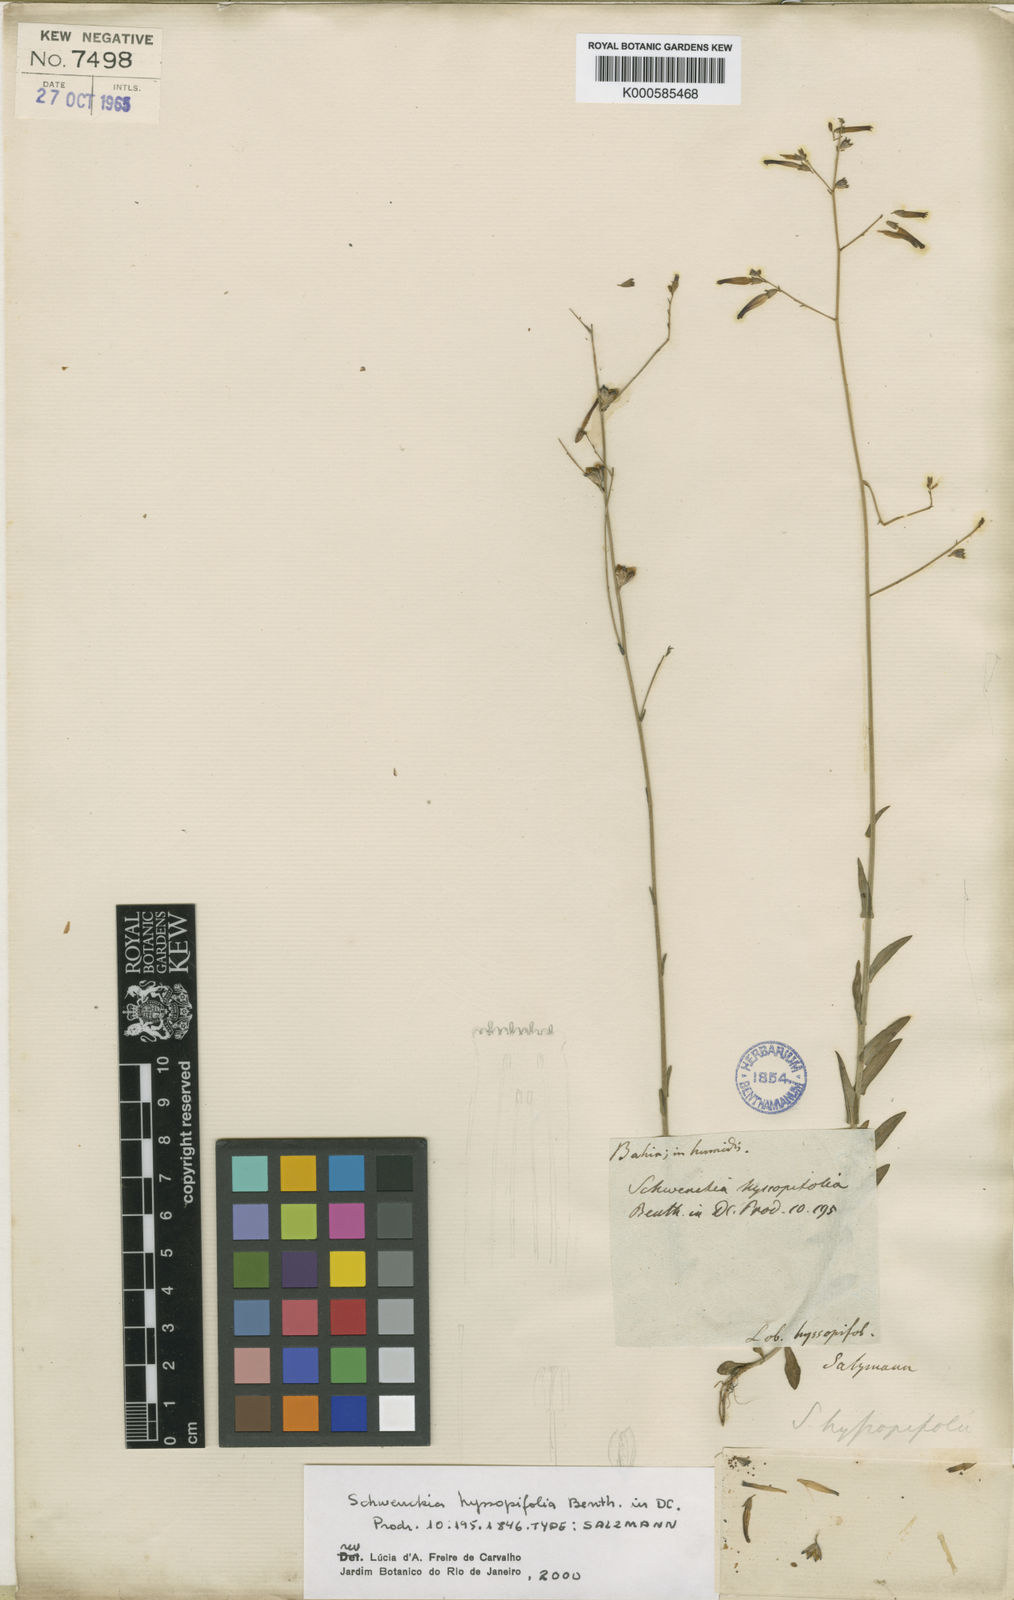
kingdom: Plantae
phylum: Tracheophyta
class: Magnoliopsida
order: Solanales
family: Solanaceae
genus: Schwenckia
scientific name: Schwenckia hyssopifolia
